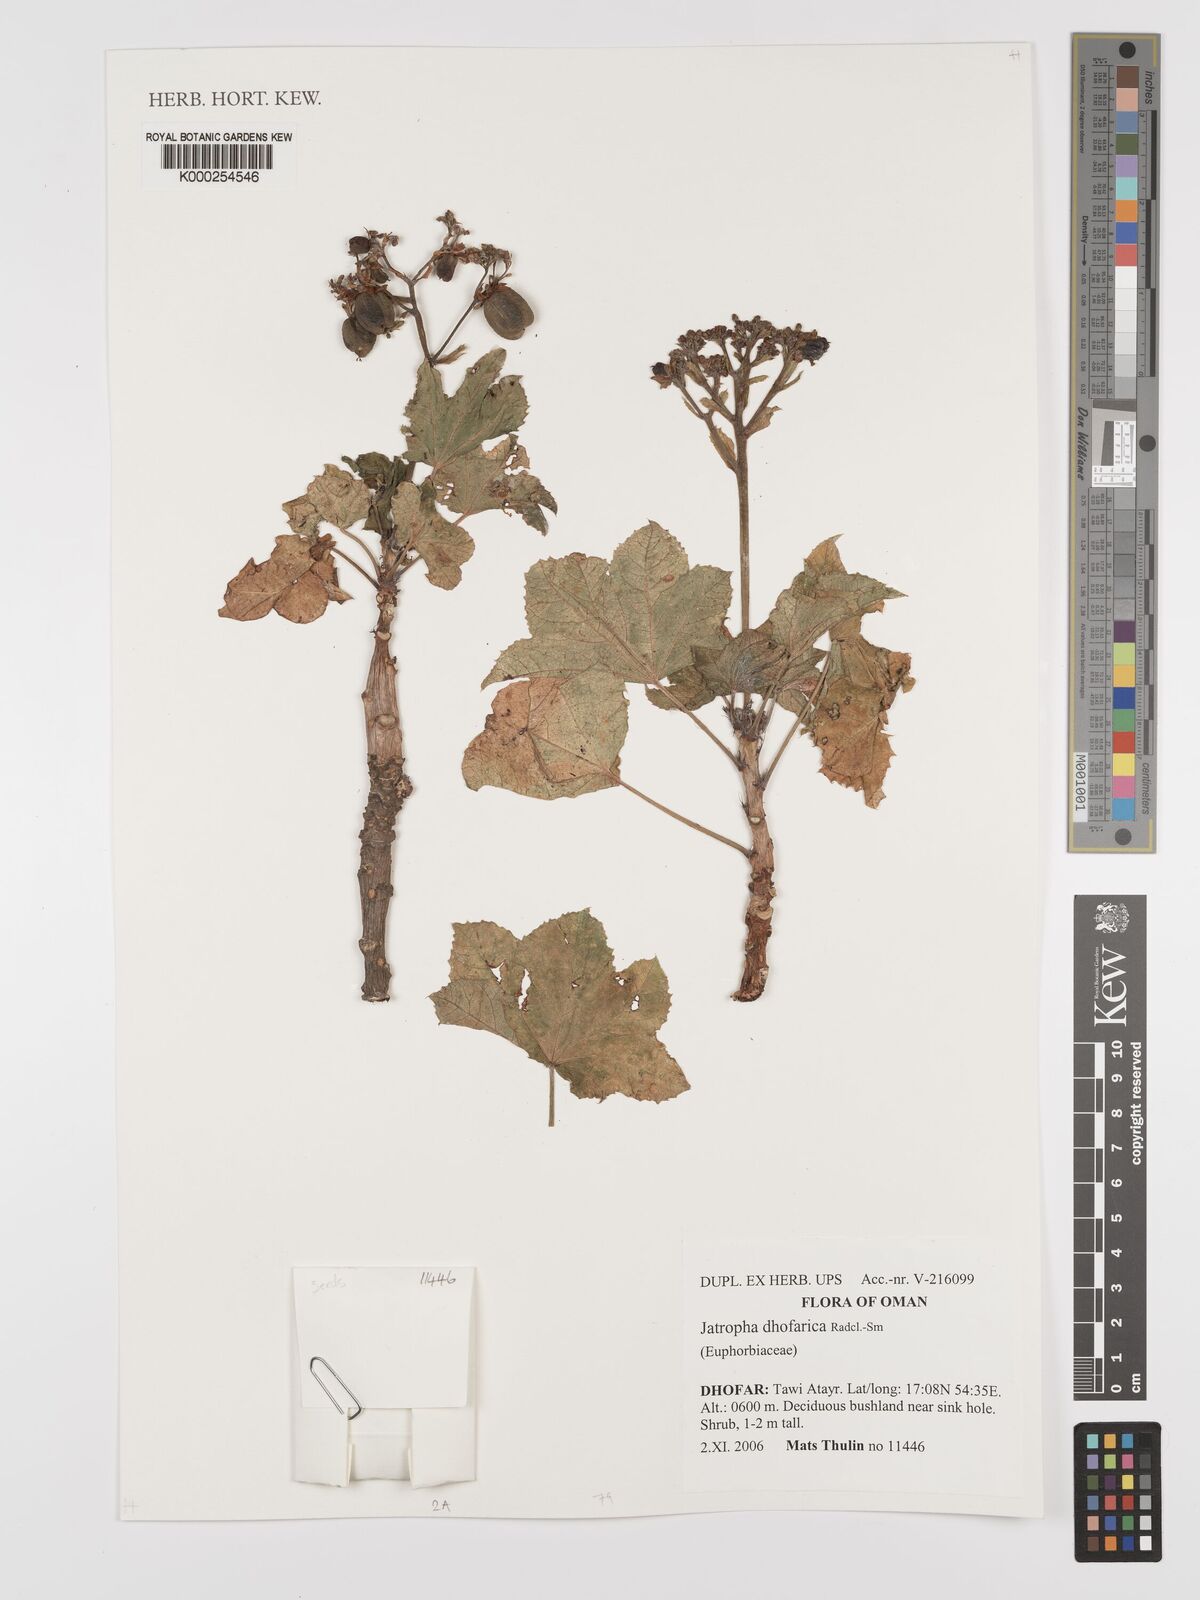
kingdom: Plantae
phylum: Tracheophyta
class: Magnoliopsida
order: Malpighiales
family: Euphorbiaceae
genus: Jatropha
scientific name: Jatropha dhofarica
